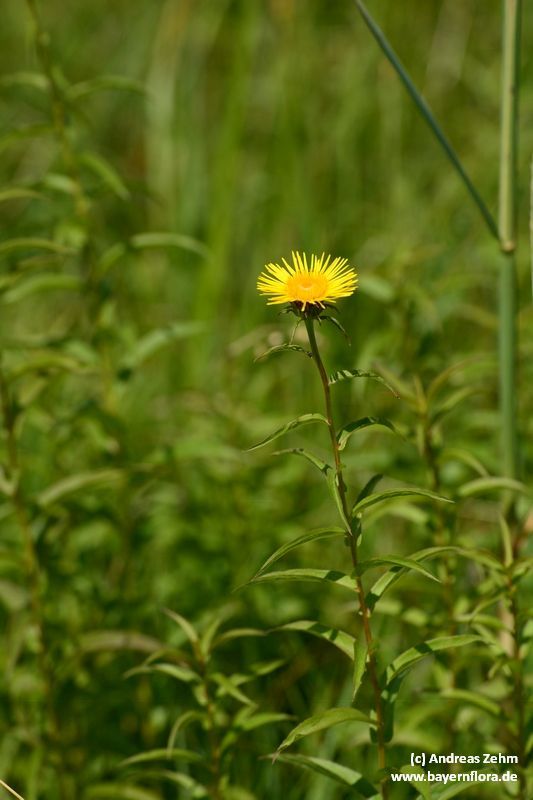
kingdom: Plantae
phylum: Tracheophyta
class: Magnoliopsida
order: Asterales
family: Asteraceae
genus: Pentanema
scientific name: Pentanema salicinum
